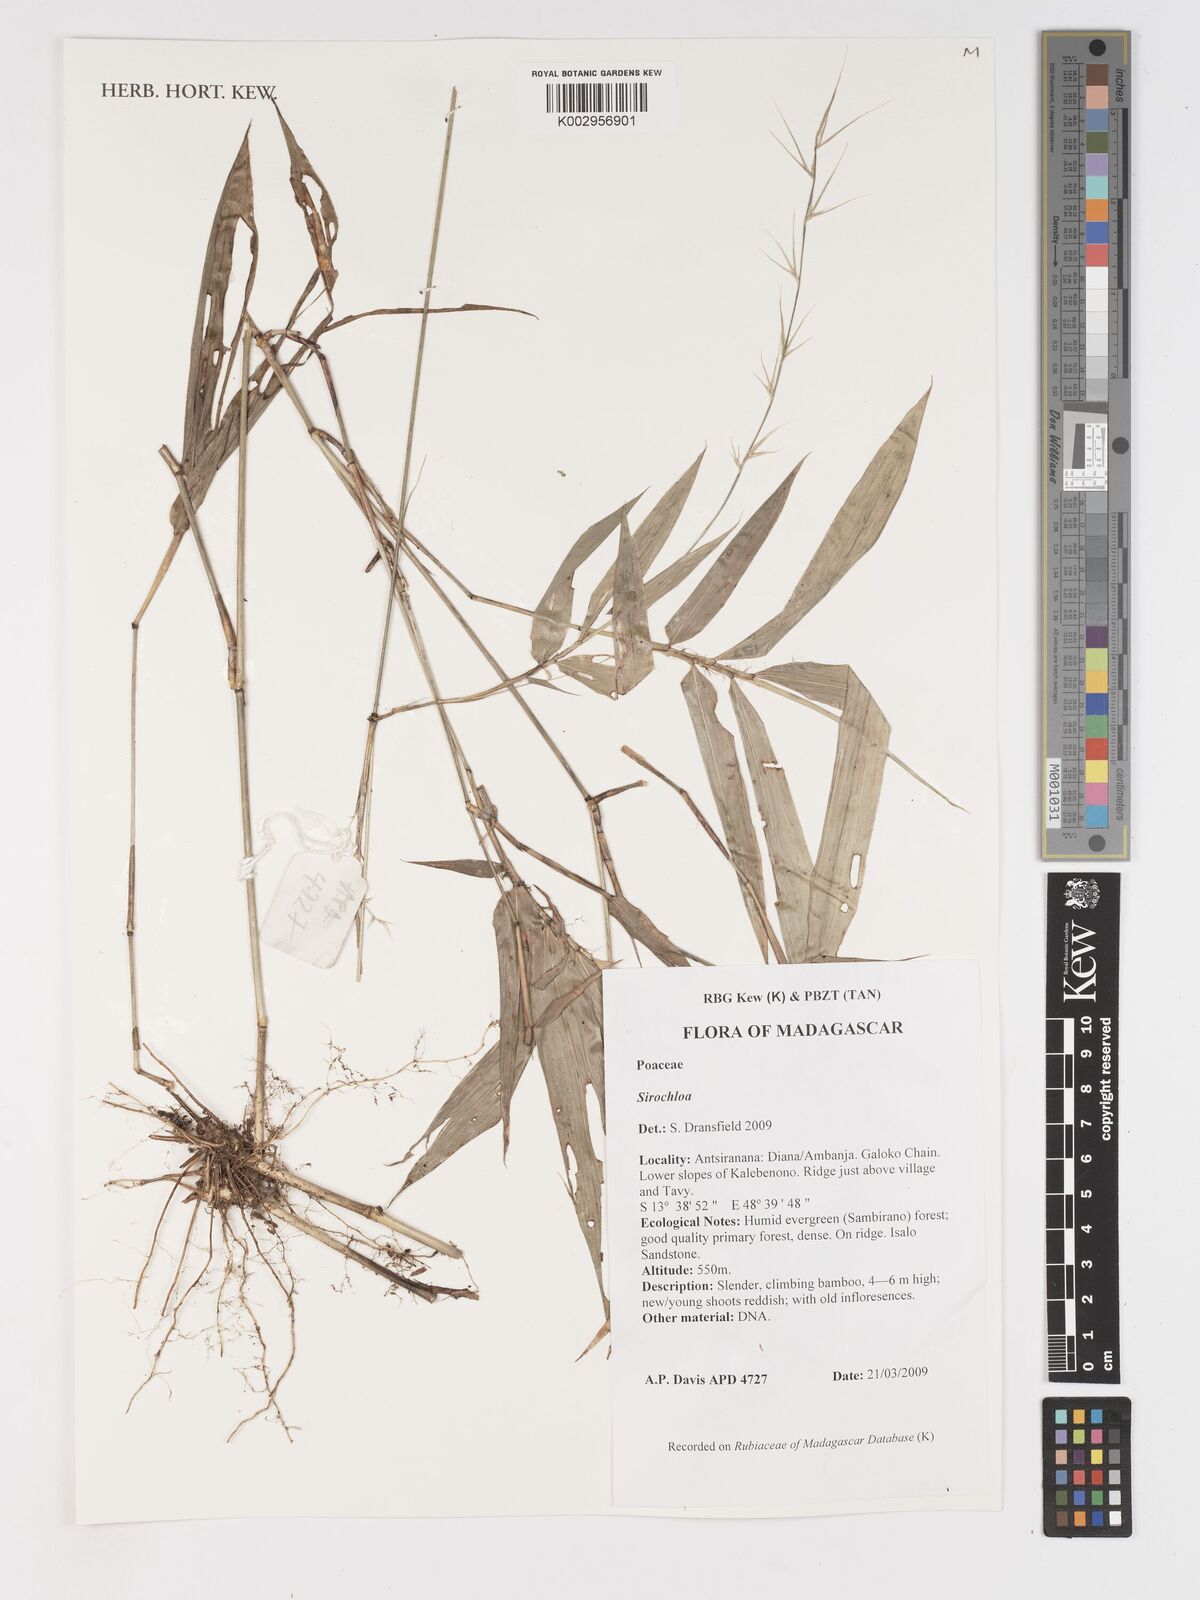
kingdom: Plantae
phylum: Tracheophyta
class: Liliopsida
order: Poales
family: Poaceae
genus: Sirochloa
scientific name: Sirochloa
